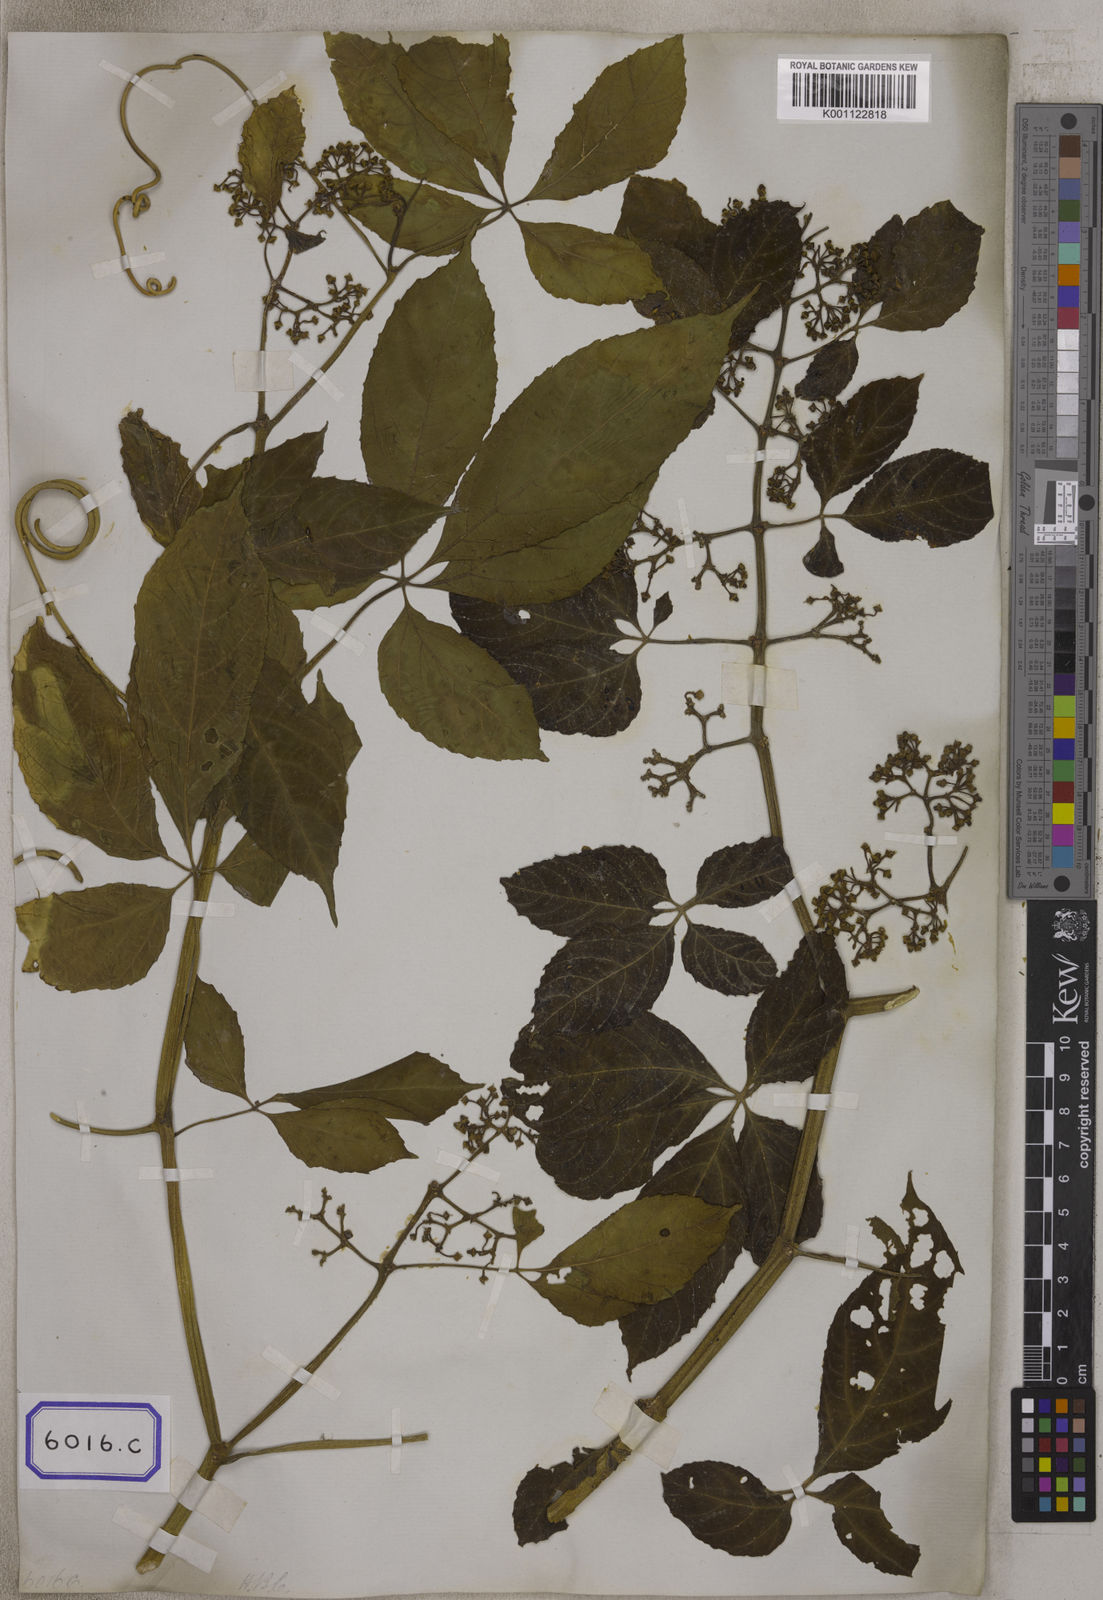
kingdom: Plantae
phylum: Tracheophyta
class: Magnoliopsida
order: Vitales
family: Vitaceae
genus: Cissus
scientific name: Cissus elongata
